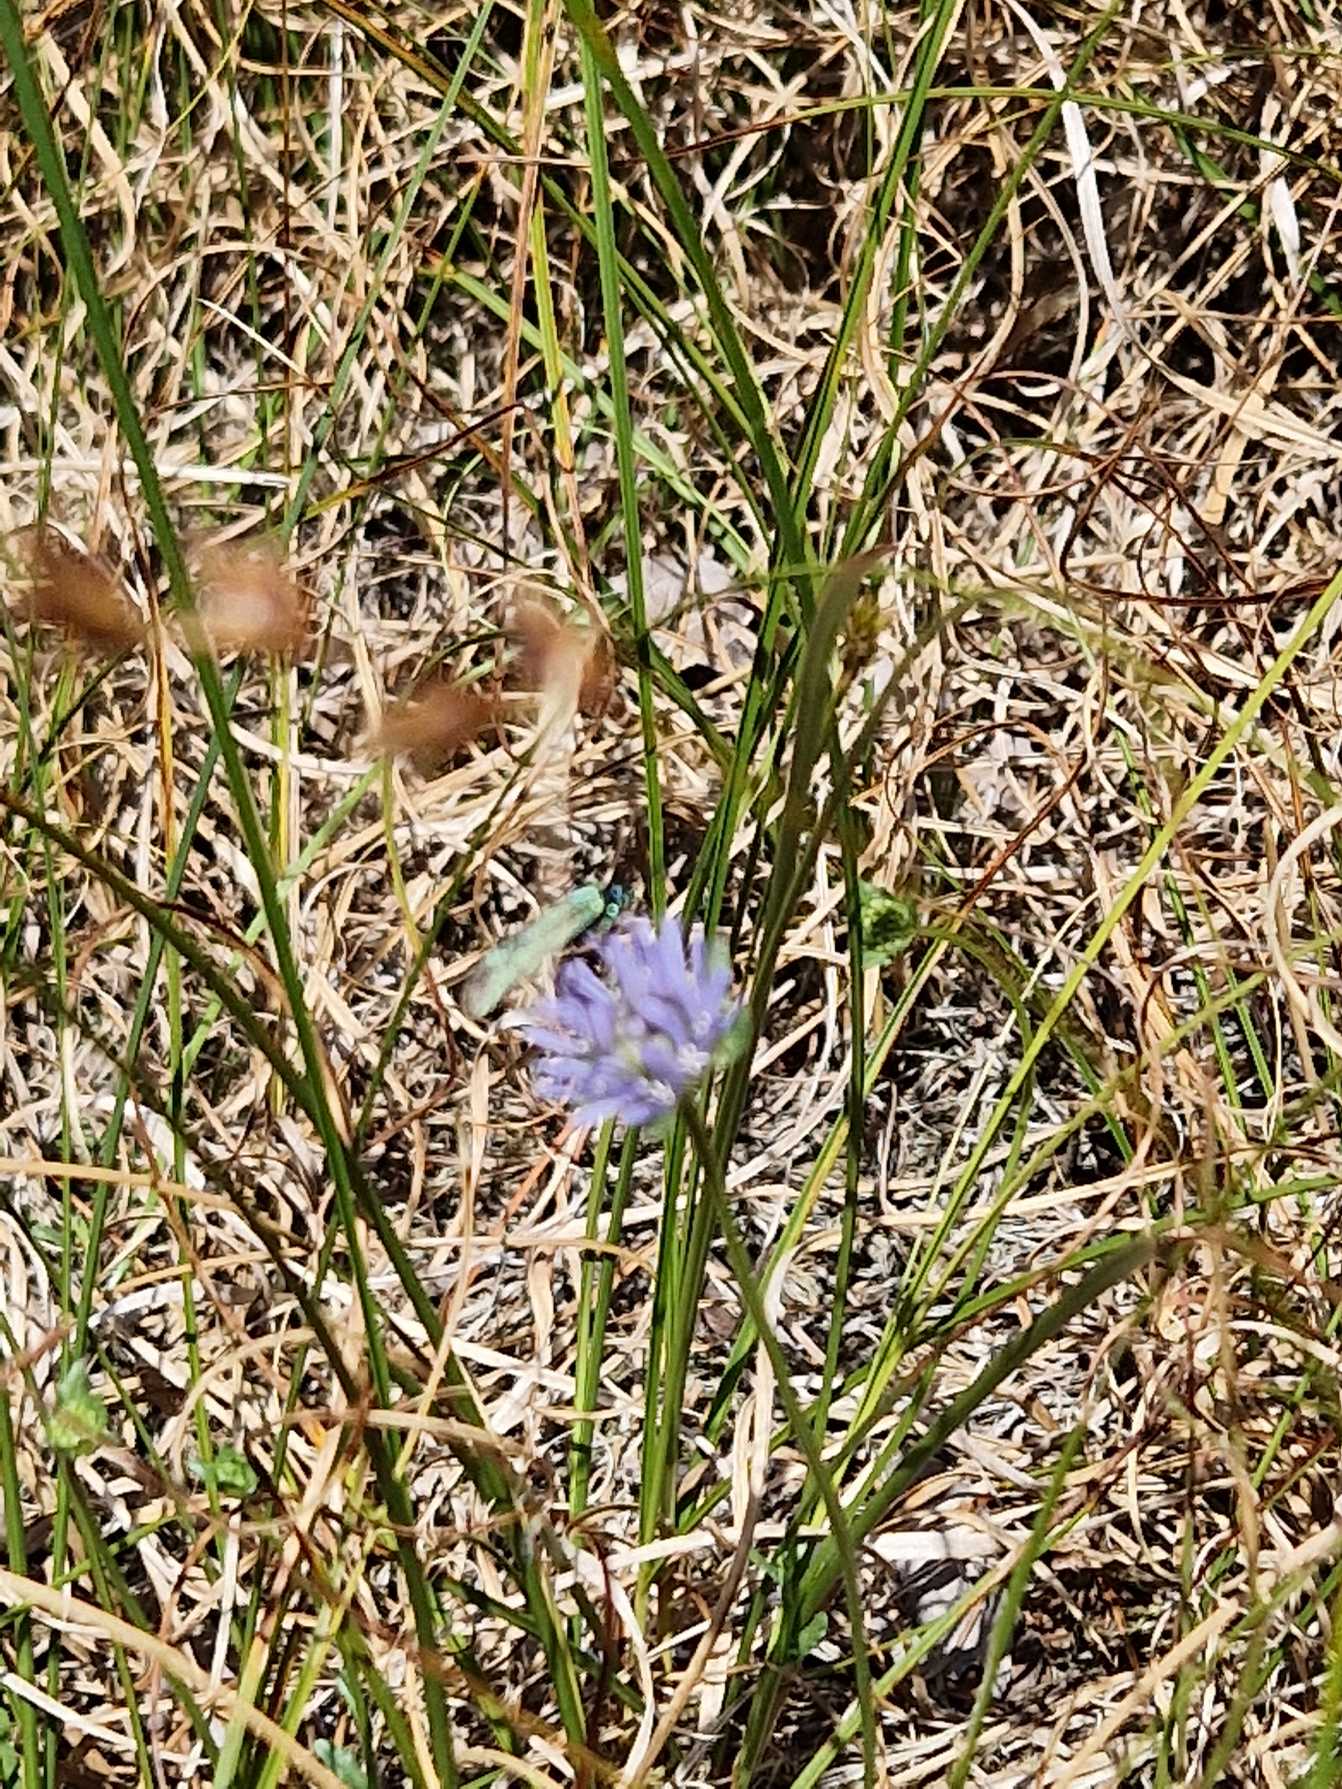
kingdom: Animalia
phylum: Arthropoda
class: Insecta
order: Lepidoptera
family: Zygaenidae
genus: Adscita
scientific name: Adscita statices
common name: Metalvinge
